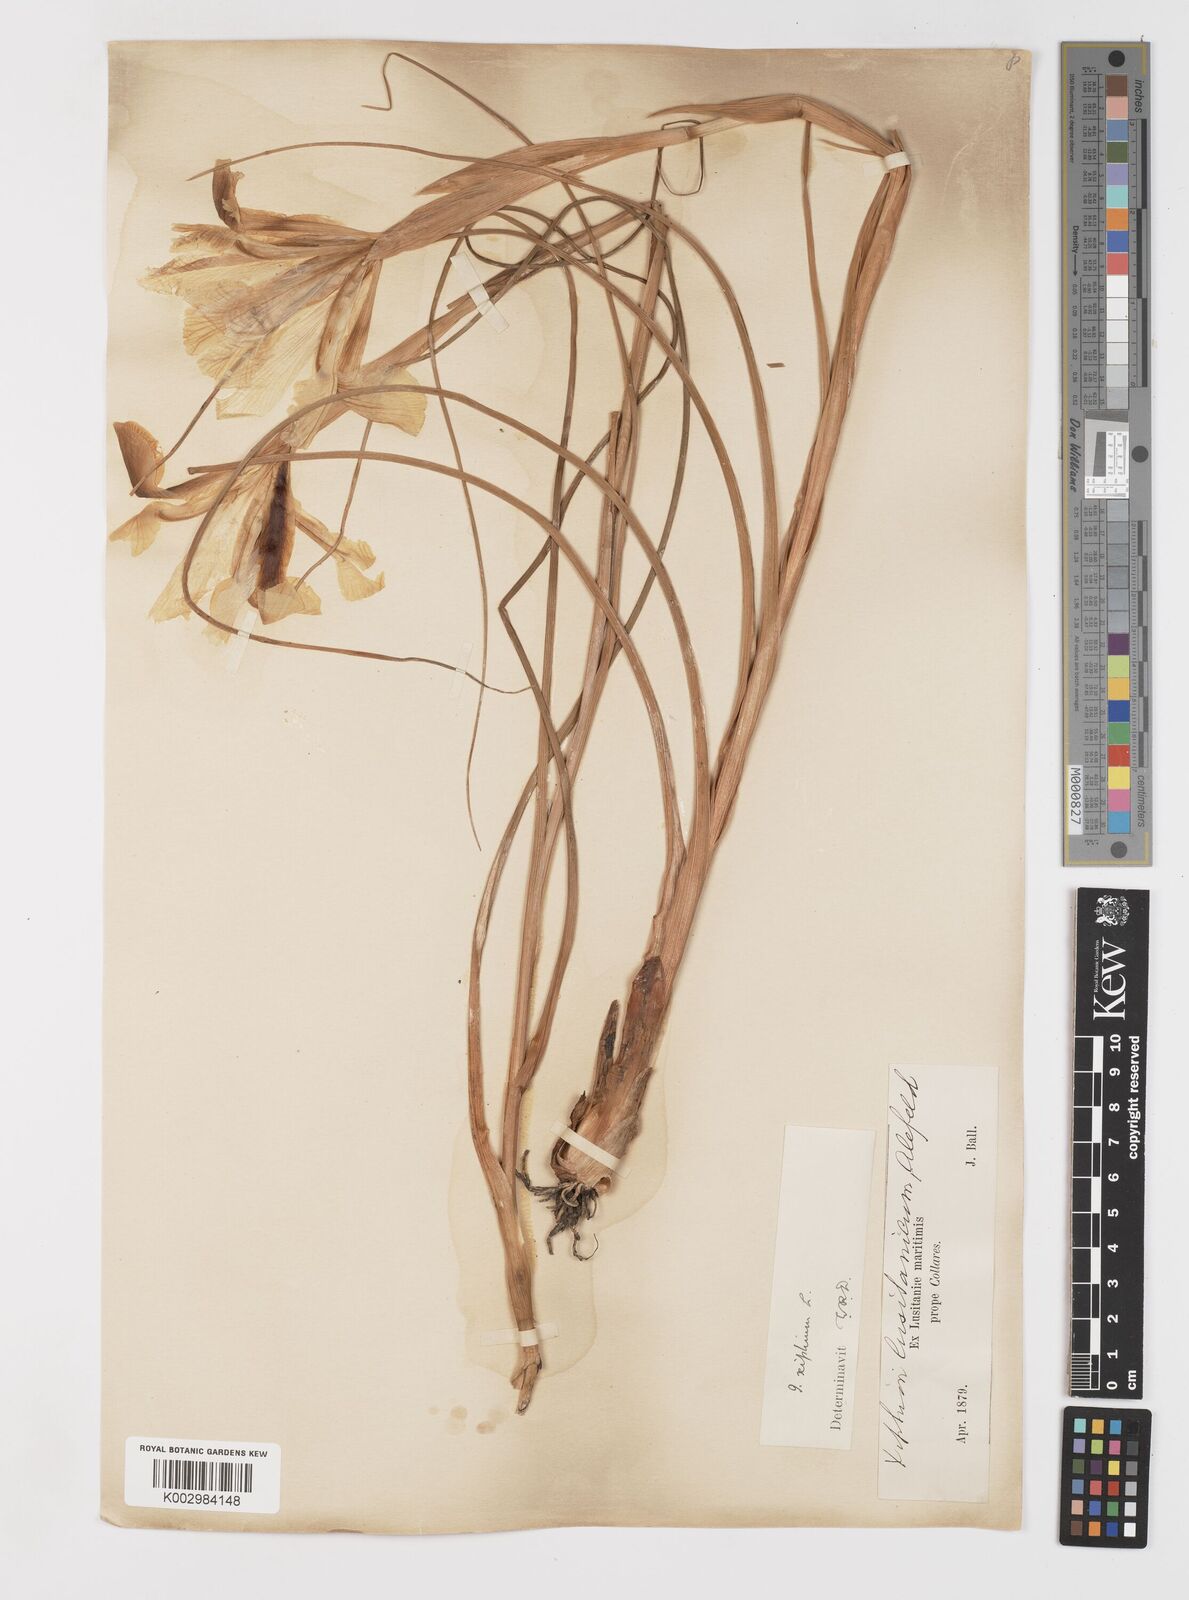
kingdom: Plantae
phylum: Tracheophyta
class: Liliopsida
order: Asparagales
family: Iridaceae
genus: Iris
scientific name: Iris xiphium
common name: Spanish iris
